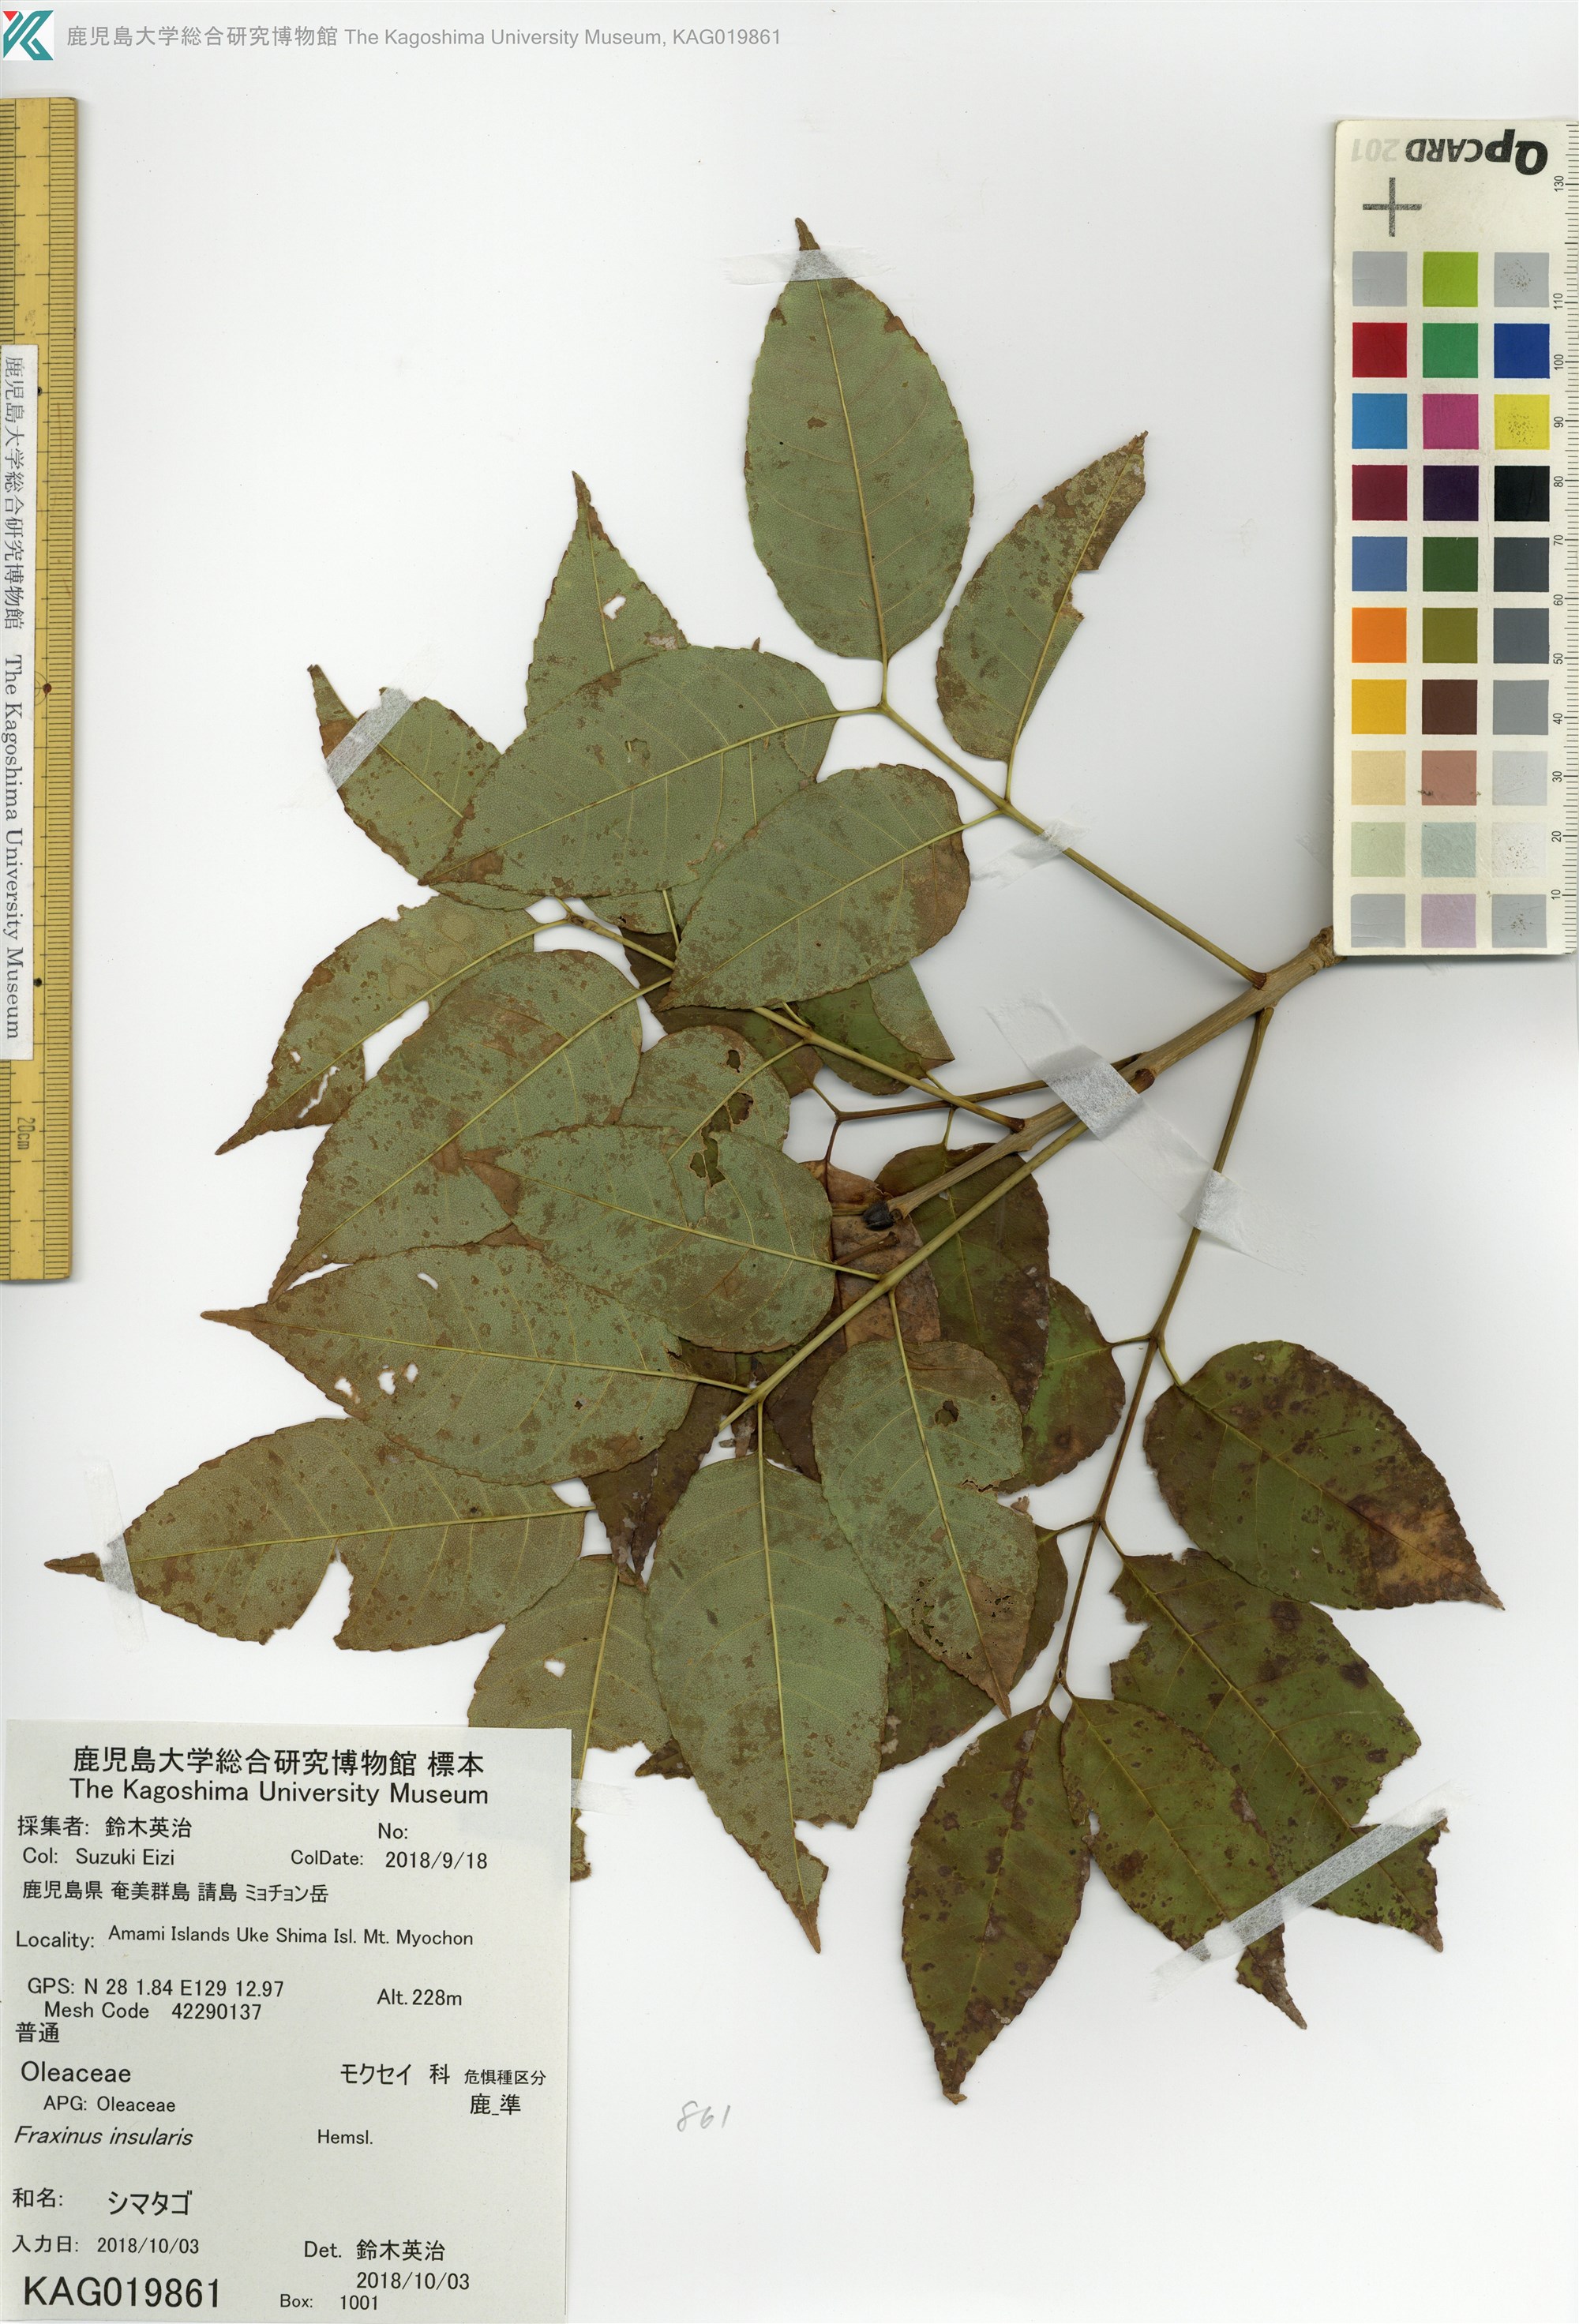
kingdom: Plantae
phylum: Tracheophyta
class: Magnoliopsida
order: Lamiales
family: Oleaceae
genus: Fraxinus
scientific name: Fraxinus insularis
